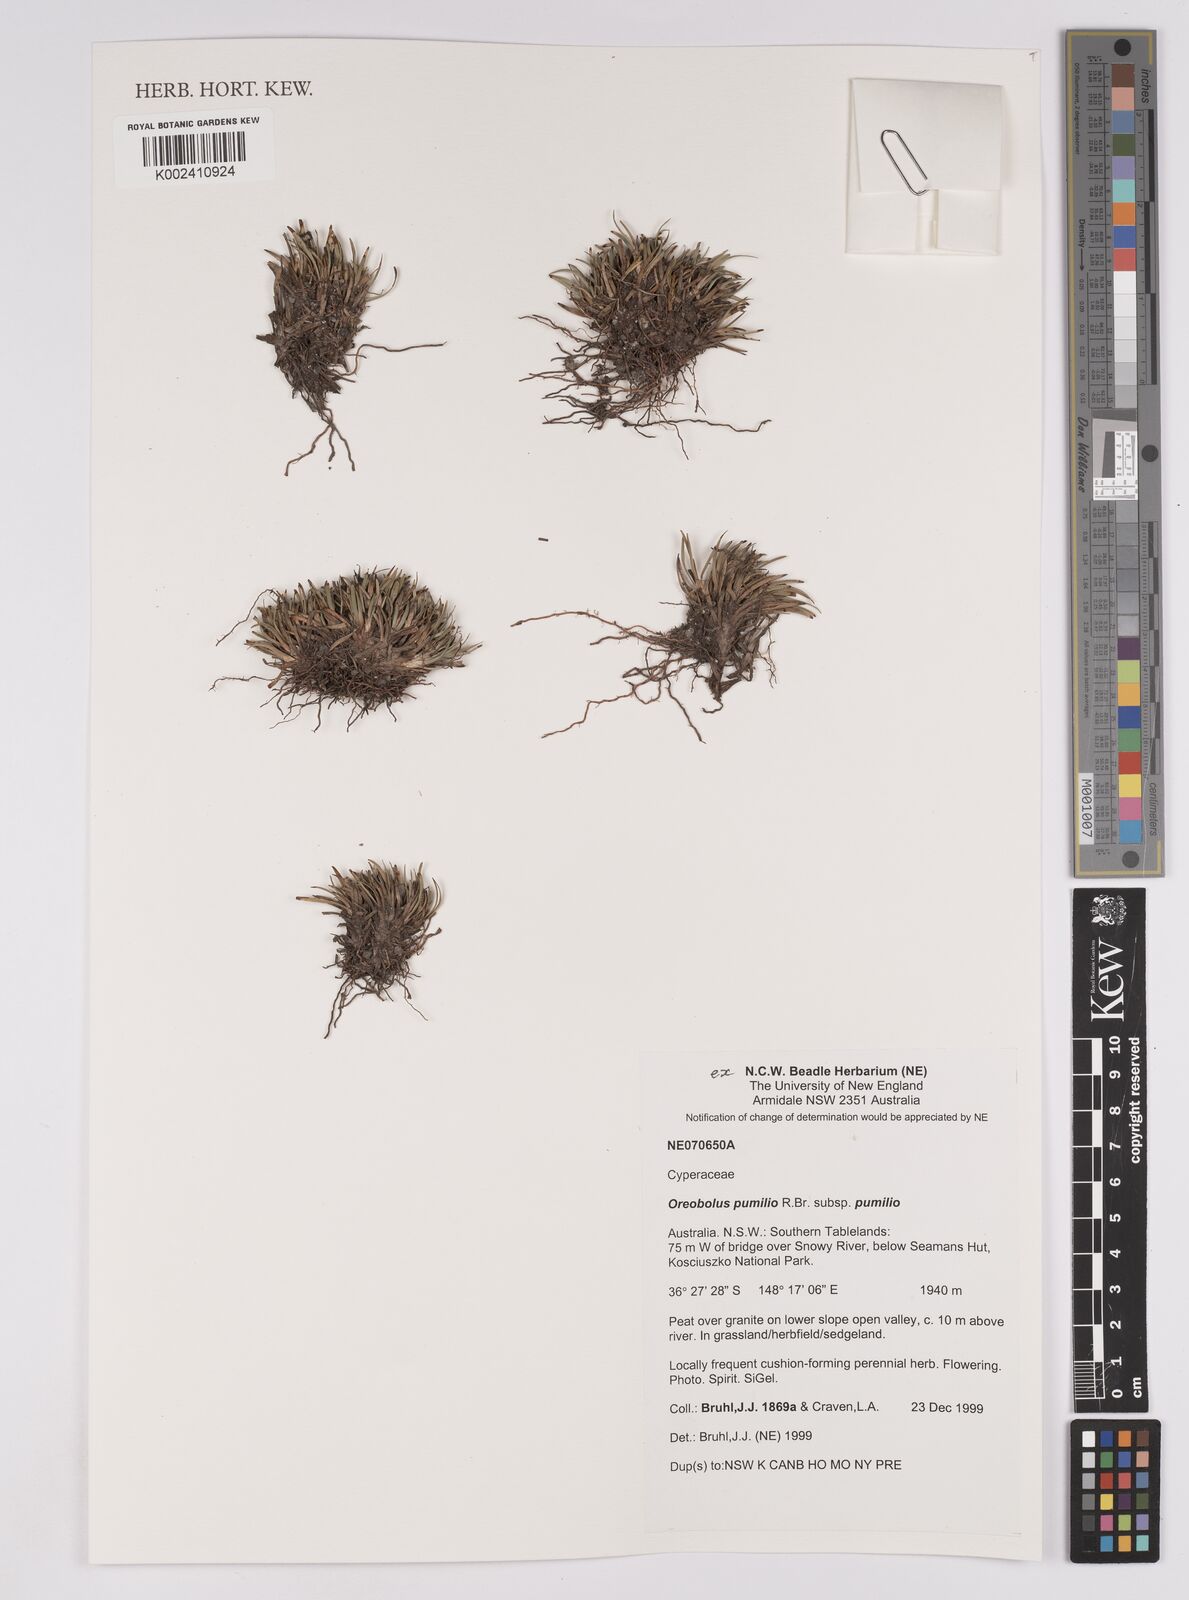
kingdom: Plantae
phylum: Tracheophyta
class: Liliopsida
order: Poales
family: Cyperaceae
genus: Oreobolus
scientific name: Oreobolus pumilio
